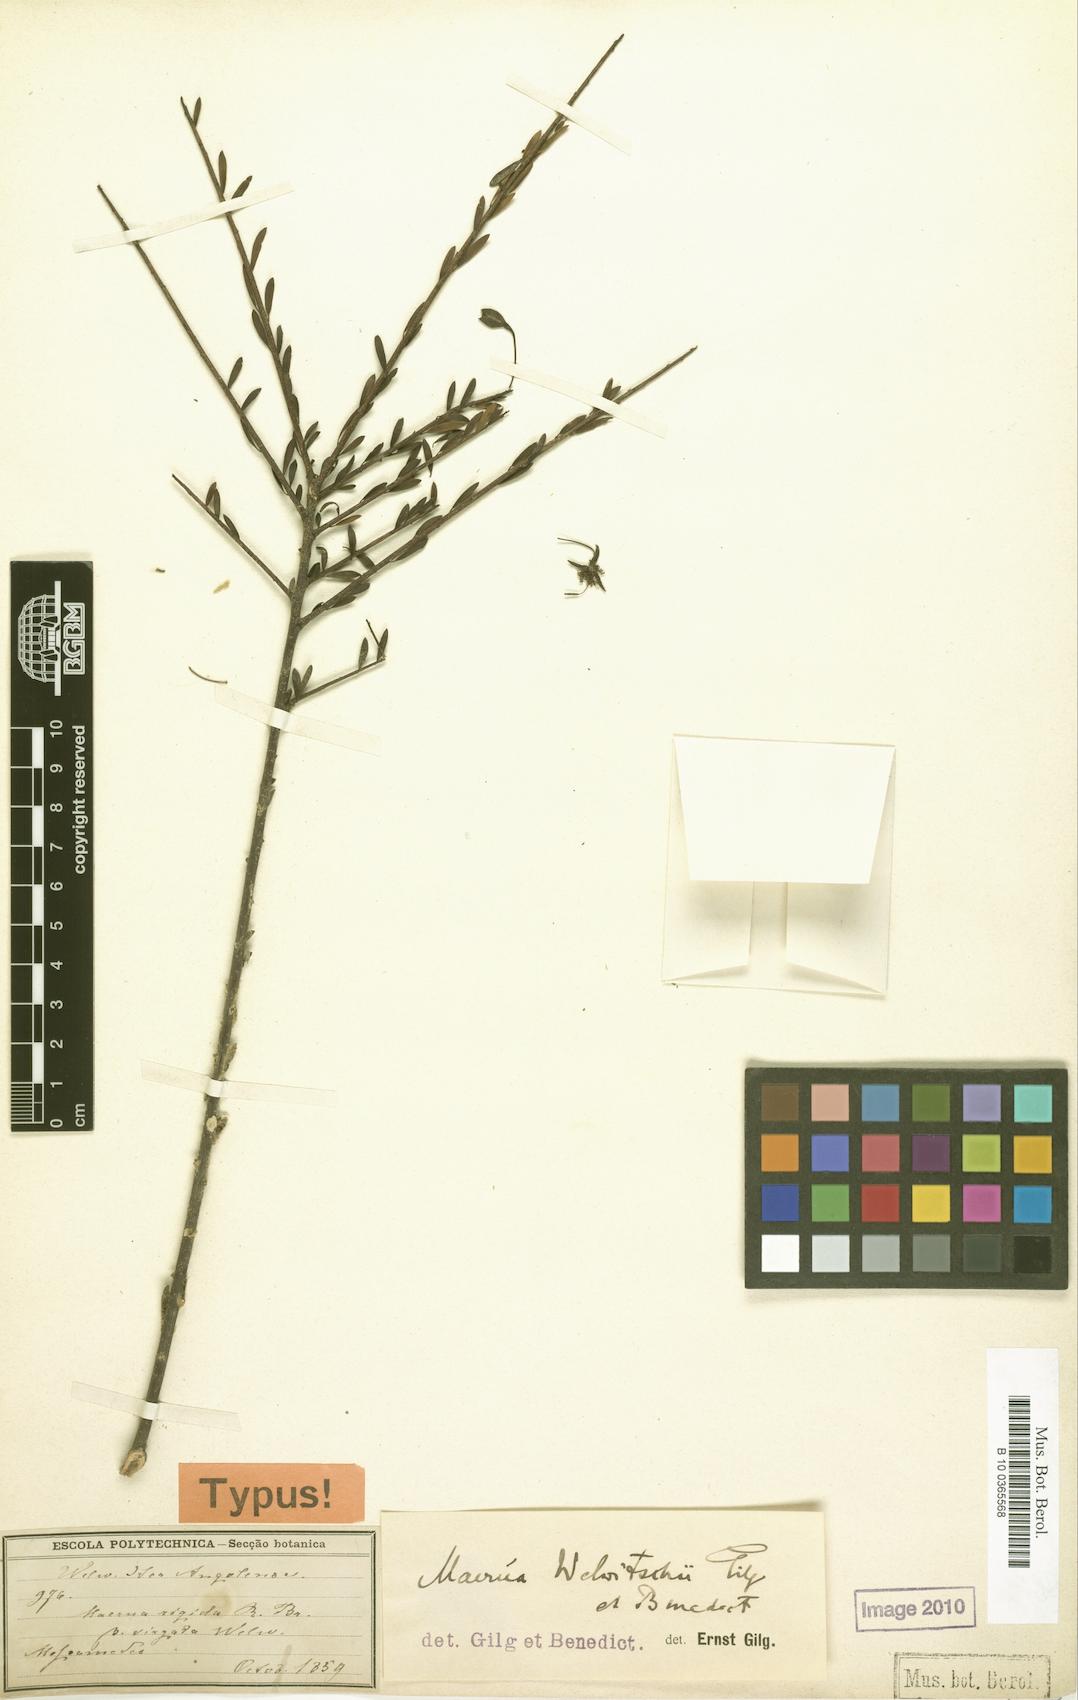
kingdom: Plantae
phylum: Tracheophyta
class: Magnoliopsida
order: Brassicales
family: Capparaceae
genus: Maerua
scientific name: Maerua buxifolia
